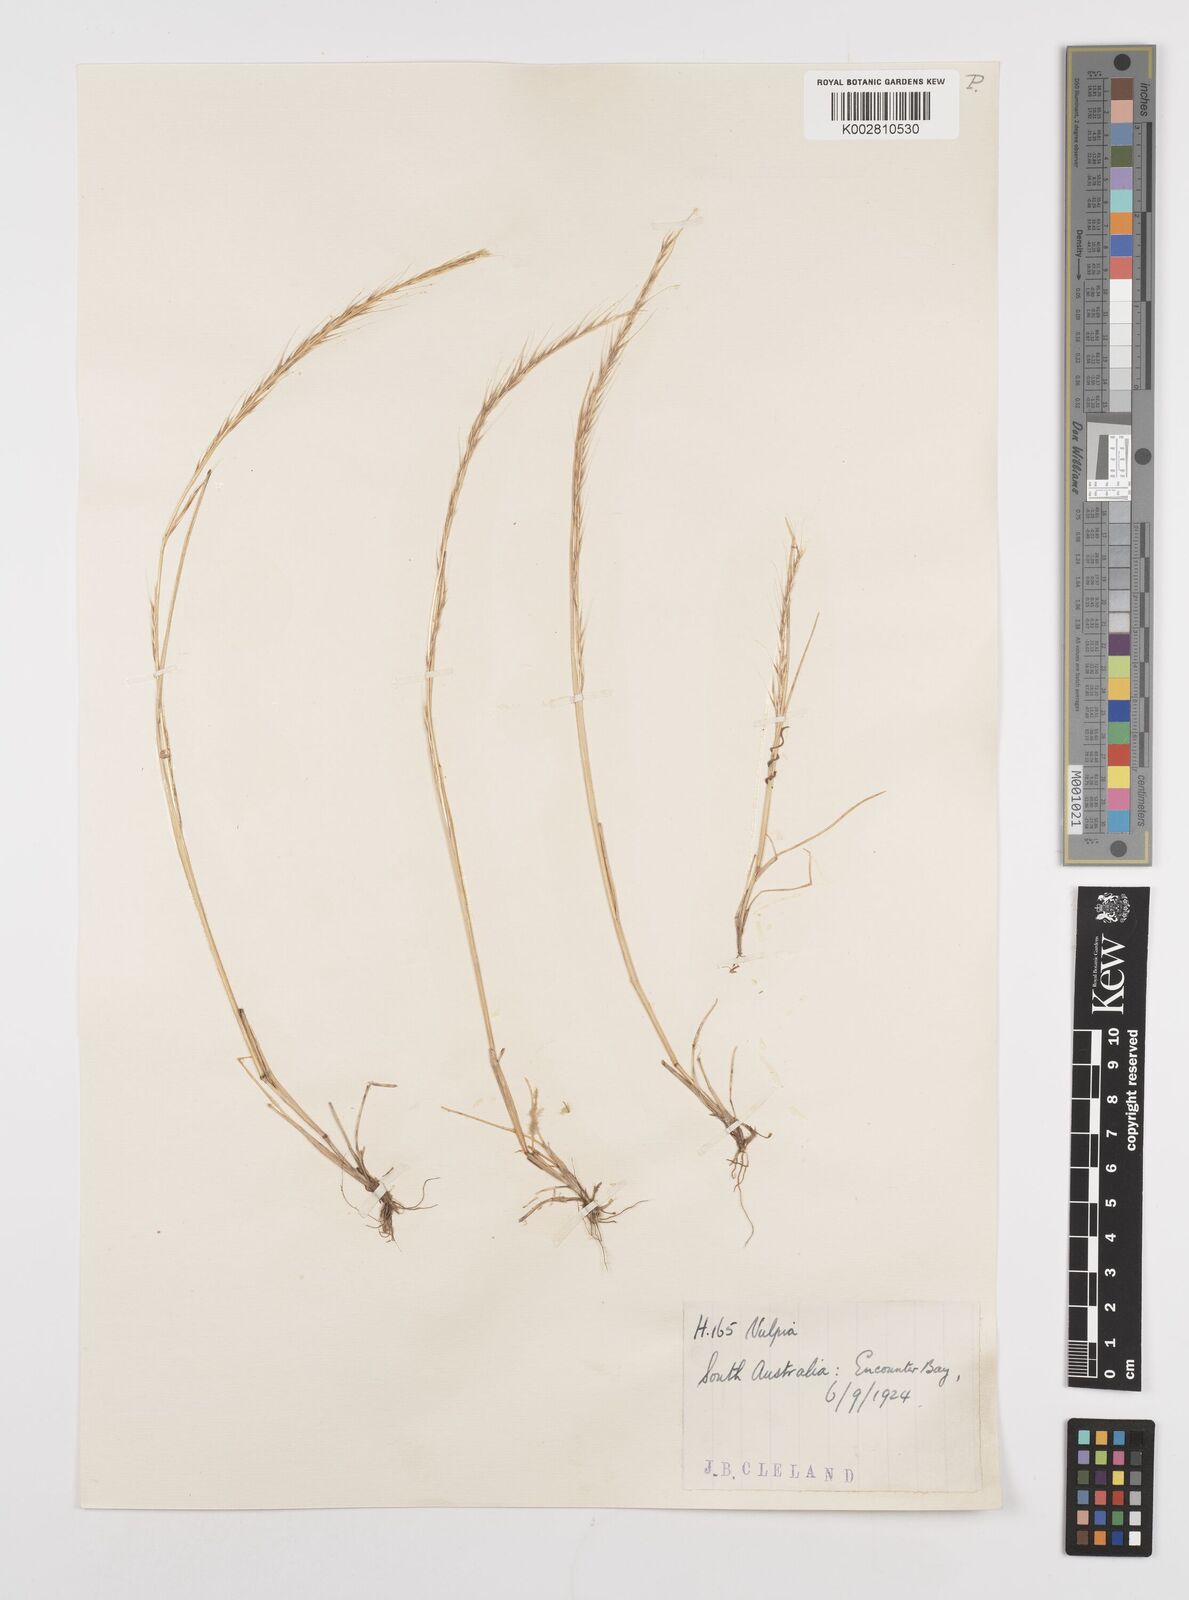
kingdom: Plantae
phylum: Tracheophyta
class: Liliopsida
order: Poales
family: Poaceae
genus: Festuca
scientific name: Festuca myuros
